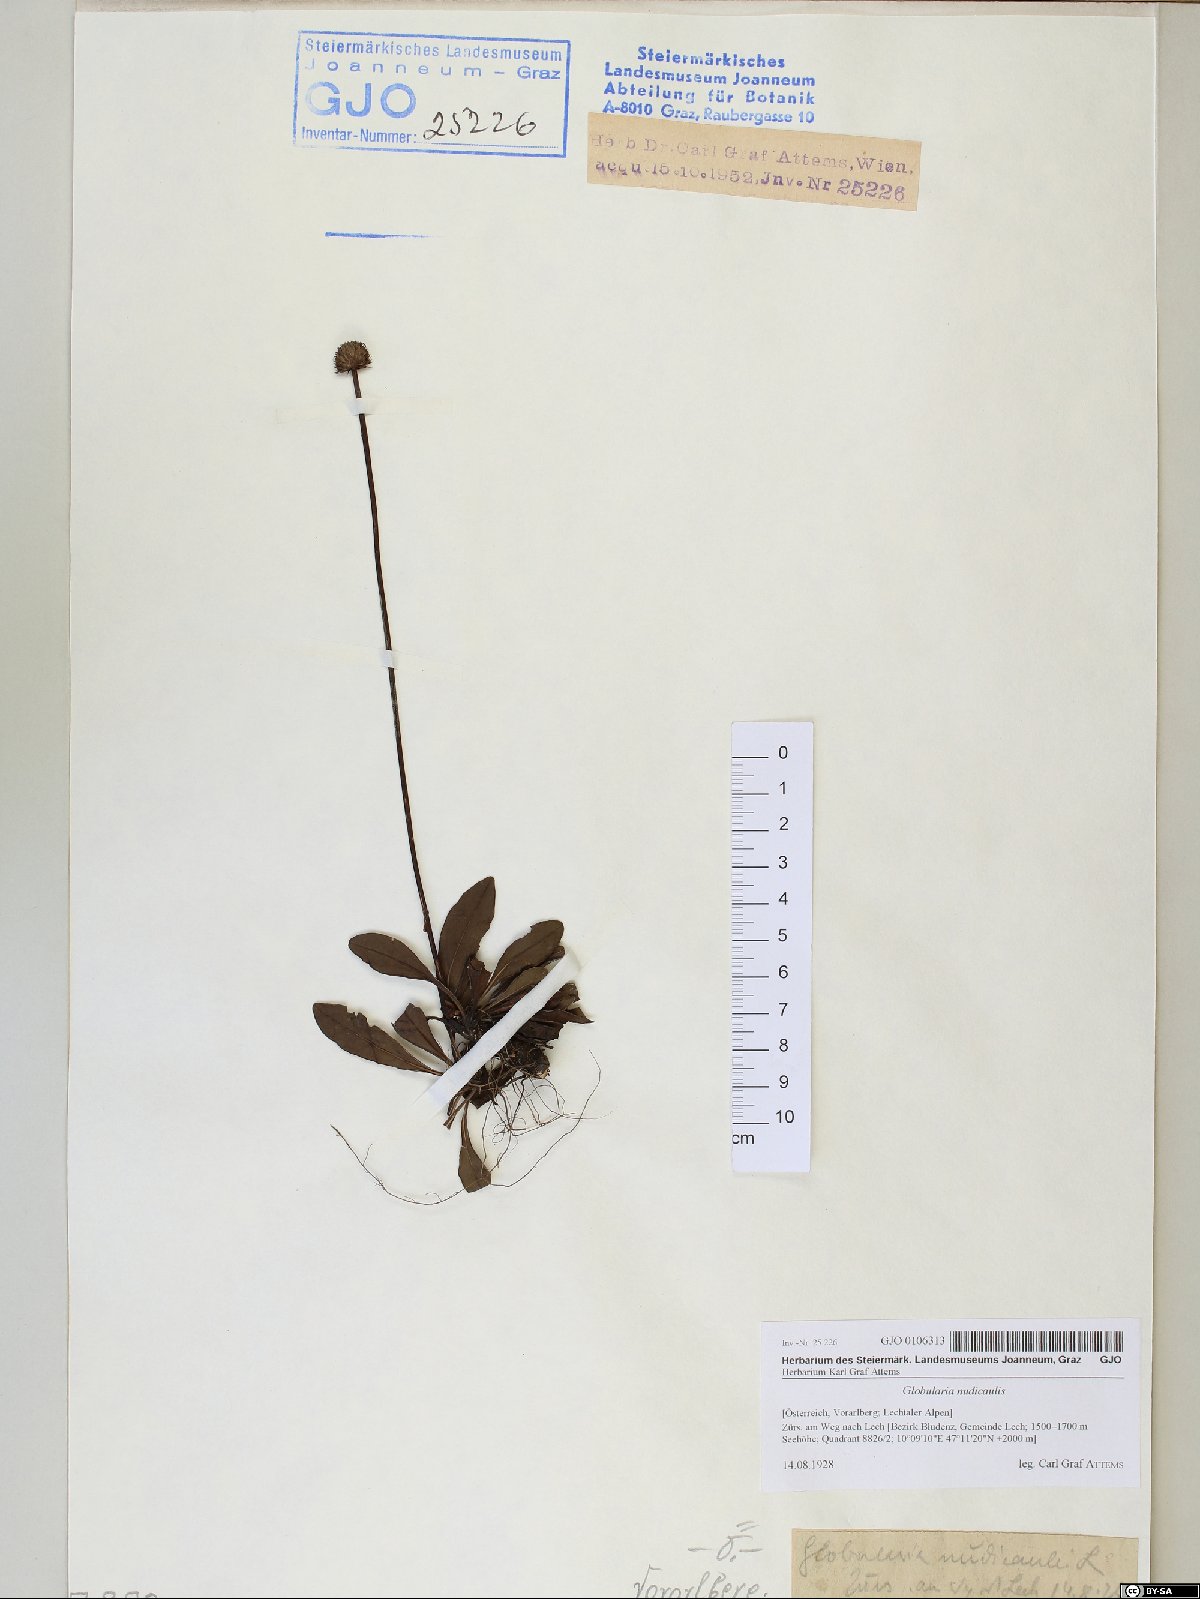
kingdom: Plantae
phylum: Tracheophyta
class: Magnoliopsida
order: Lamiales
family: Plantaginaceae
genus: Globularia
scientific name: Globularia nudicaulis
